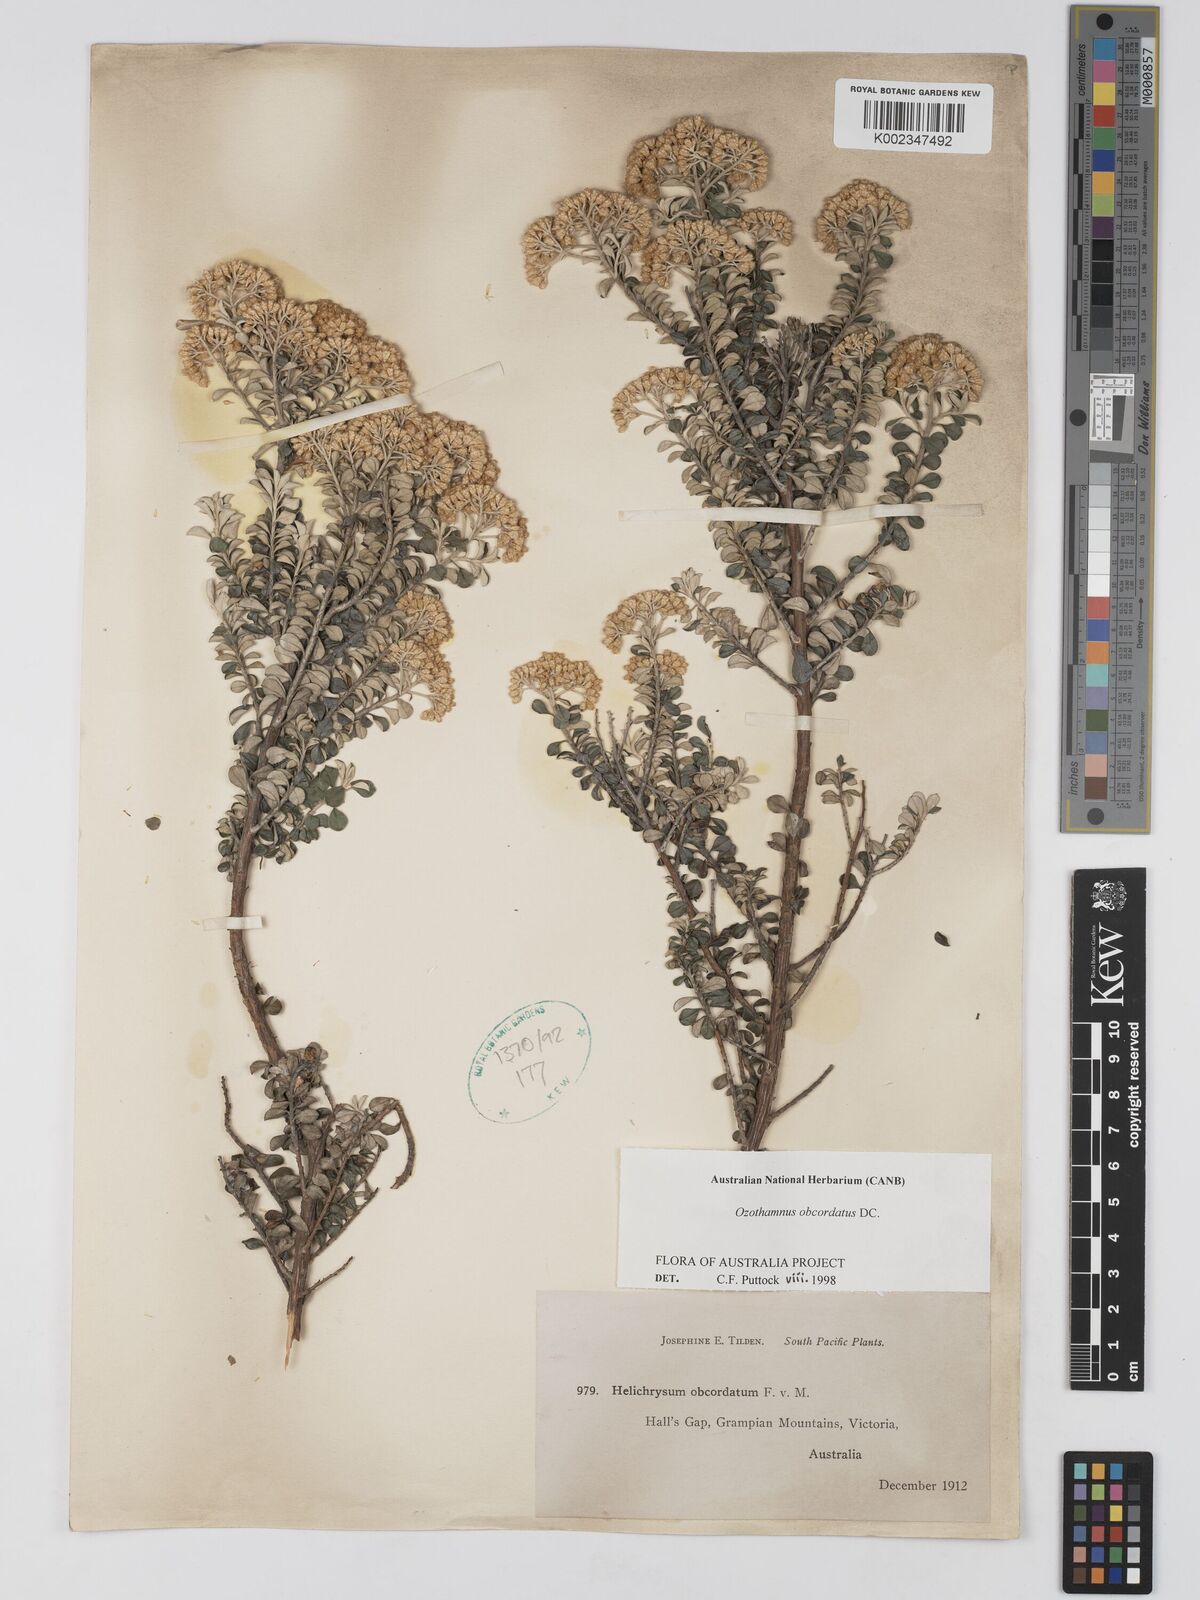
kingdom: Plantae
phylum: Tracheophyta
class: Magnoliopsida
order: Asterales
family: Asteraceae
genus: Ozothamnus
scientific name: Ozothamnus obcordatus
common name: Grey everlasting
